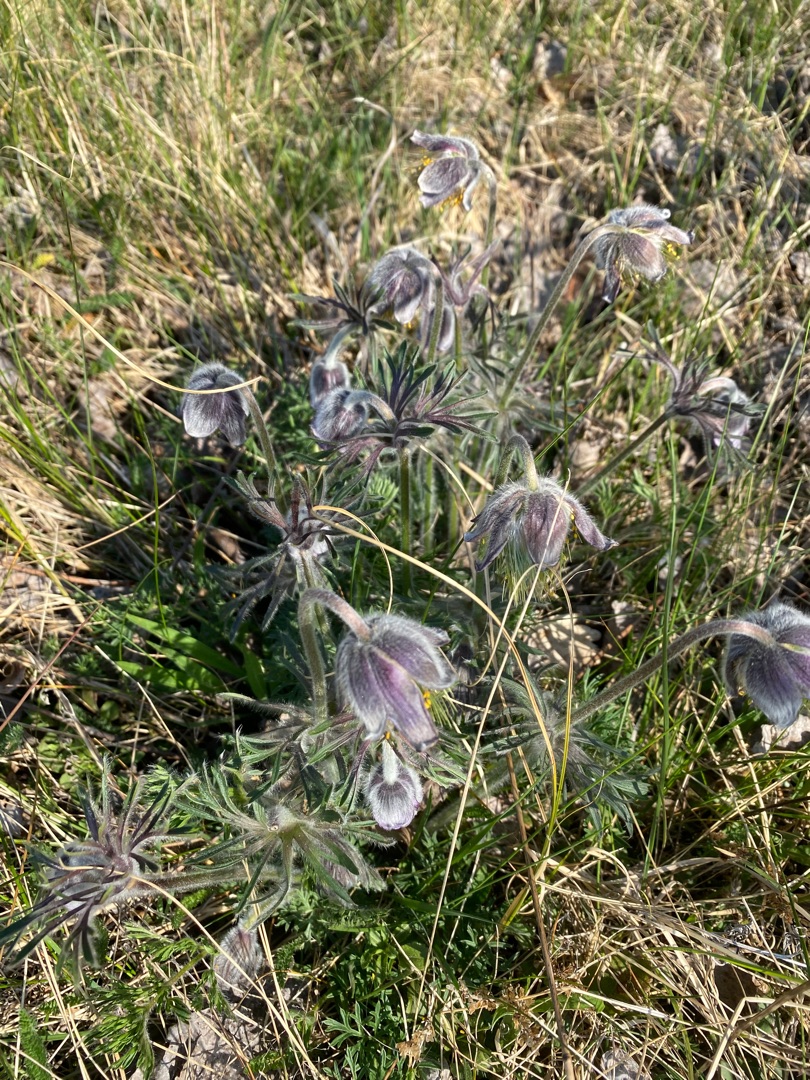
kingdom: Plantae
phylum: Tracheophyta
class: Magnoliopsida
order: Ranunculales
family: Ranunculaceae
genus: Pulsatilla
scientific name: Pulsatilla pratensis
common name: Nikkende kobjælde
